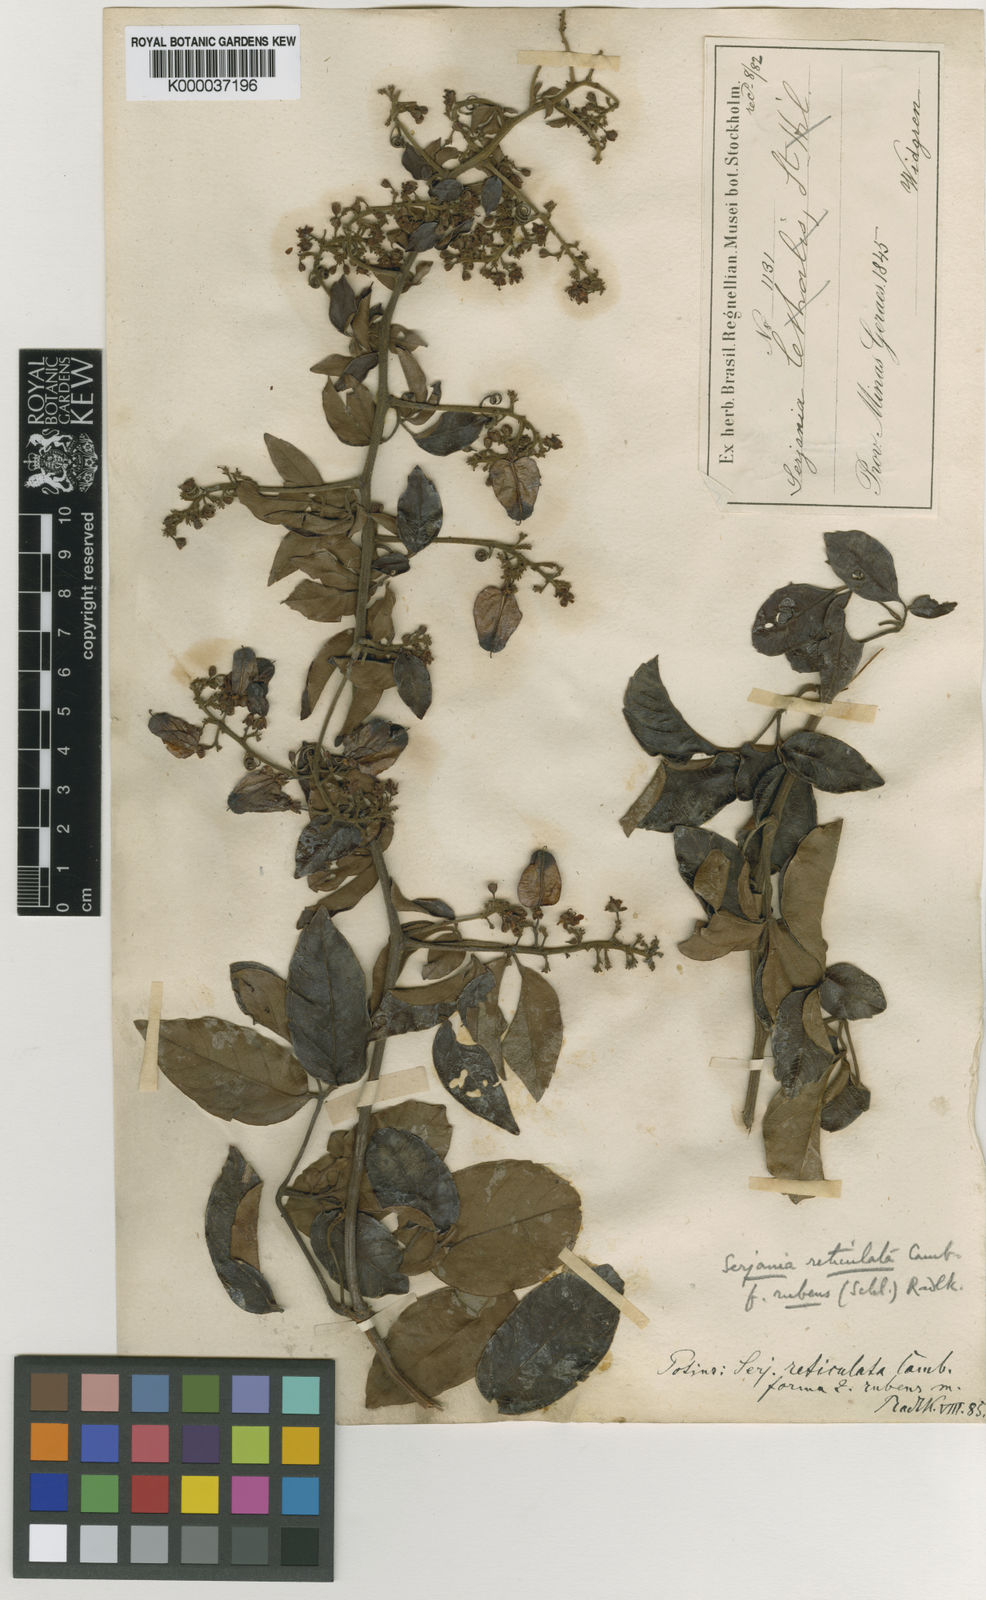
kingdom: Plantae
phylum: Tracheophyta
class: Magnoliopsida
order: Sapindales
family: Sapindaceae
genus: Serjania
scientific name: Serjania reticulata
